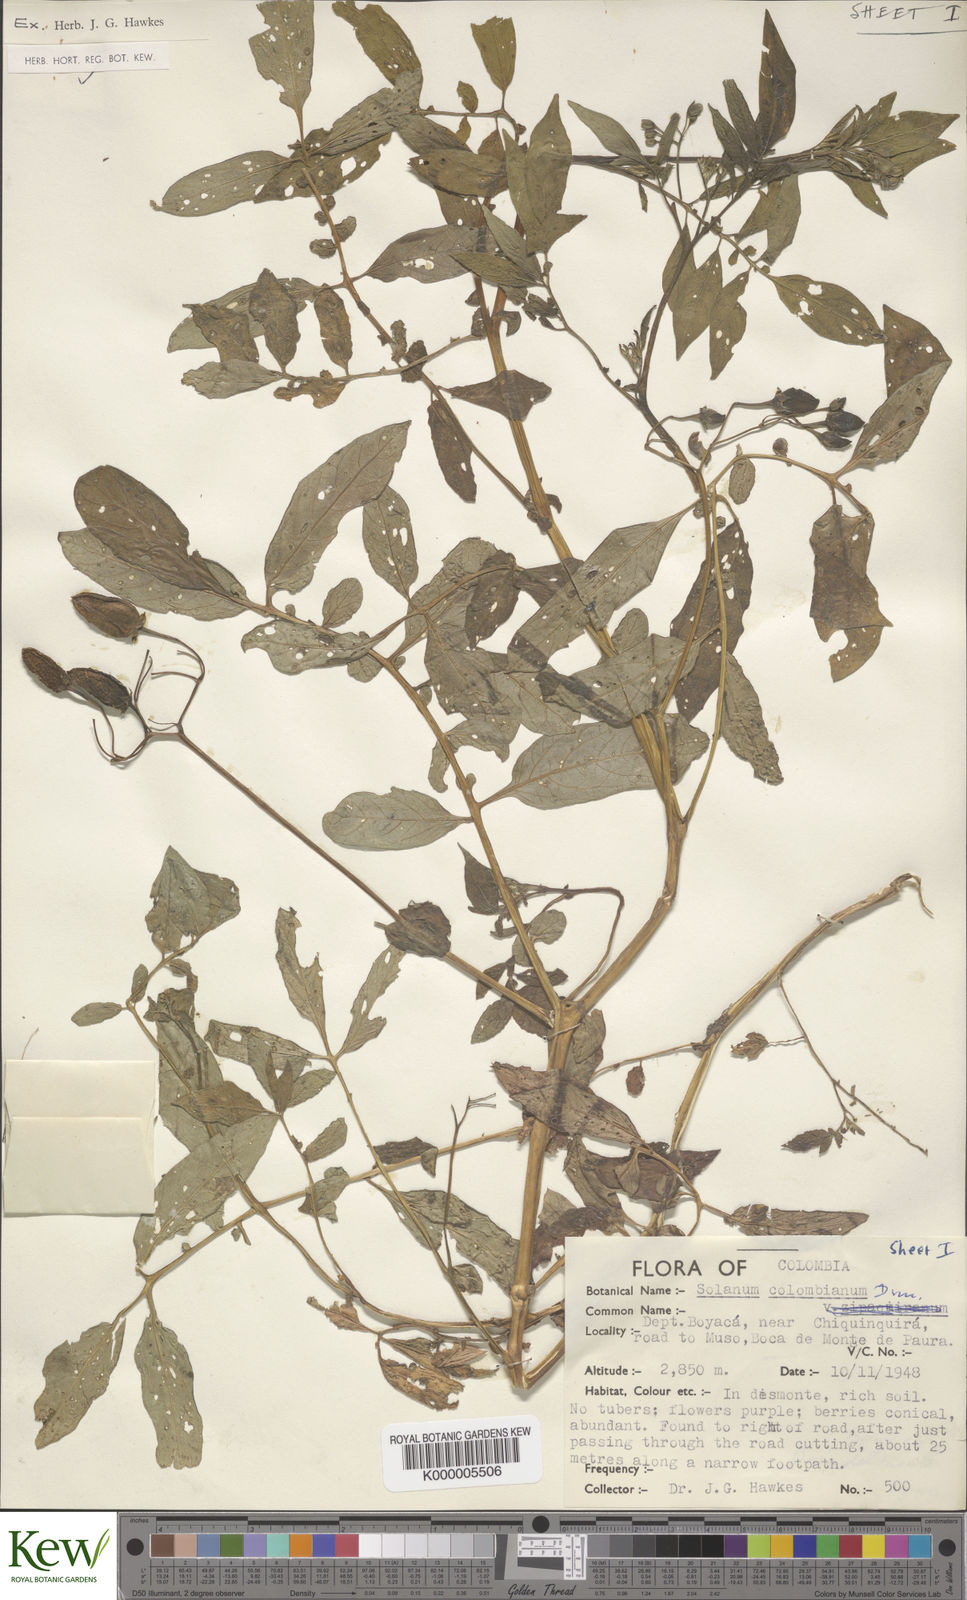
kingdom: Plantae
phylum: Tracheophyta
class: Magnoliopsida
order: Solanales
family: Solanaceae
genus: Solanum
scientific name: Solanum colombianum
